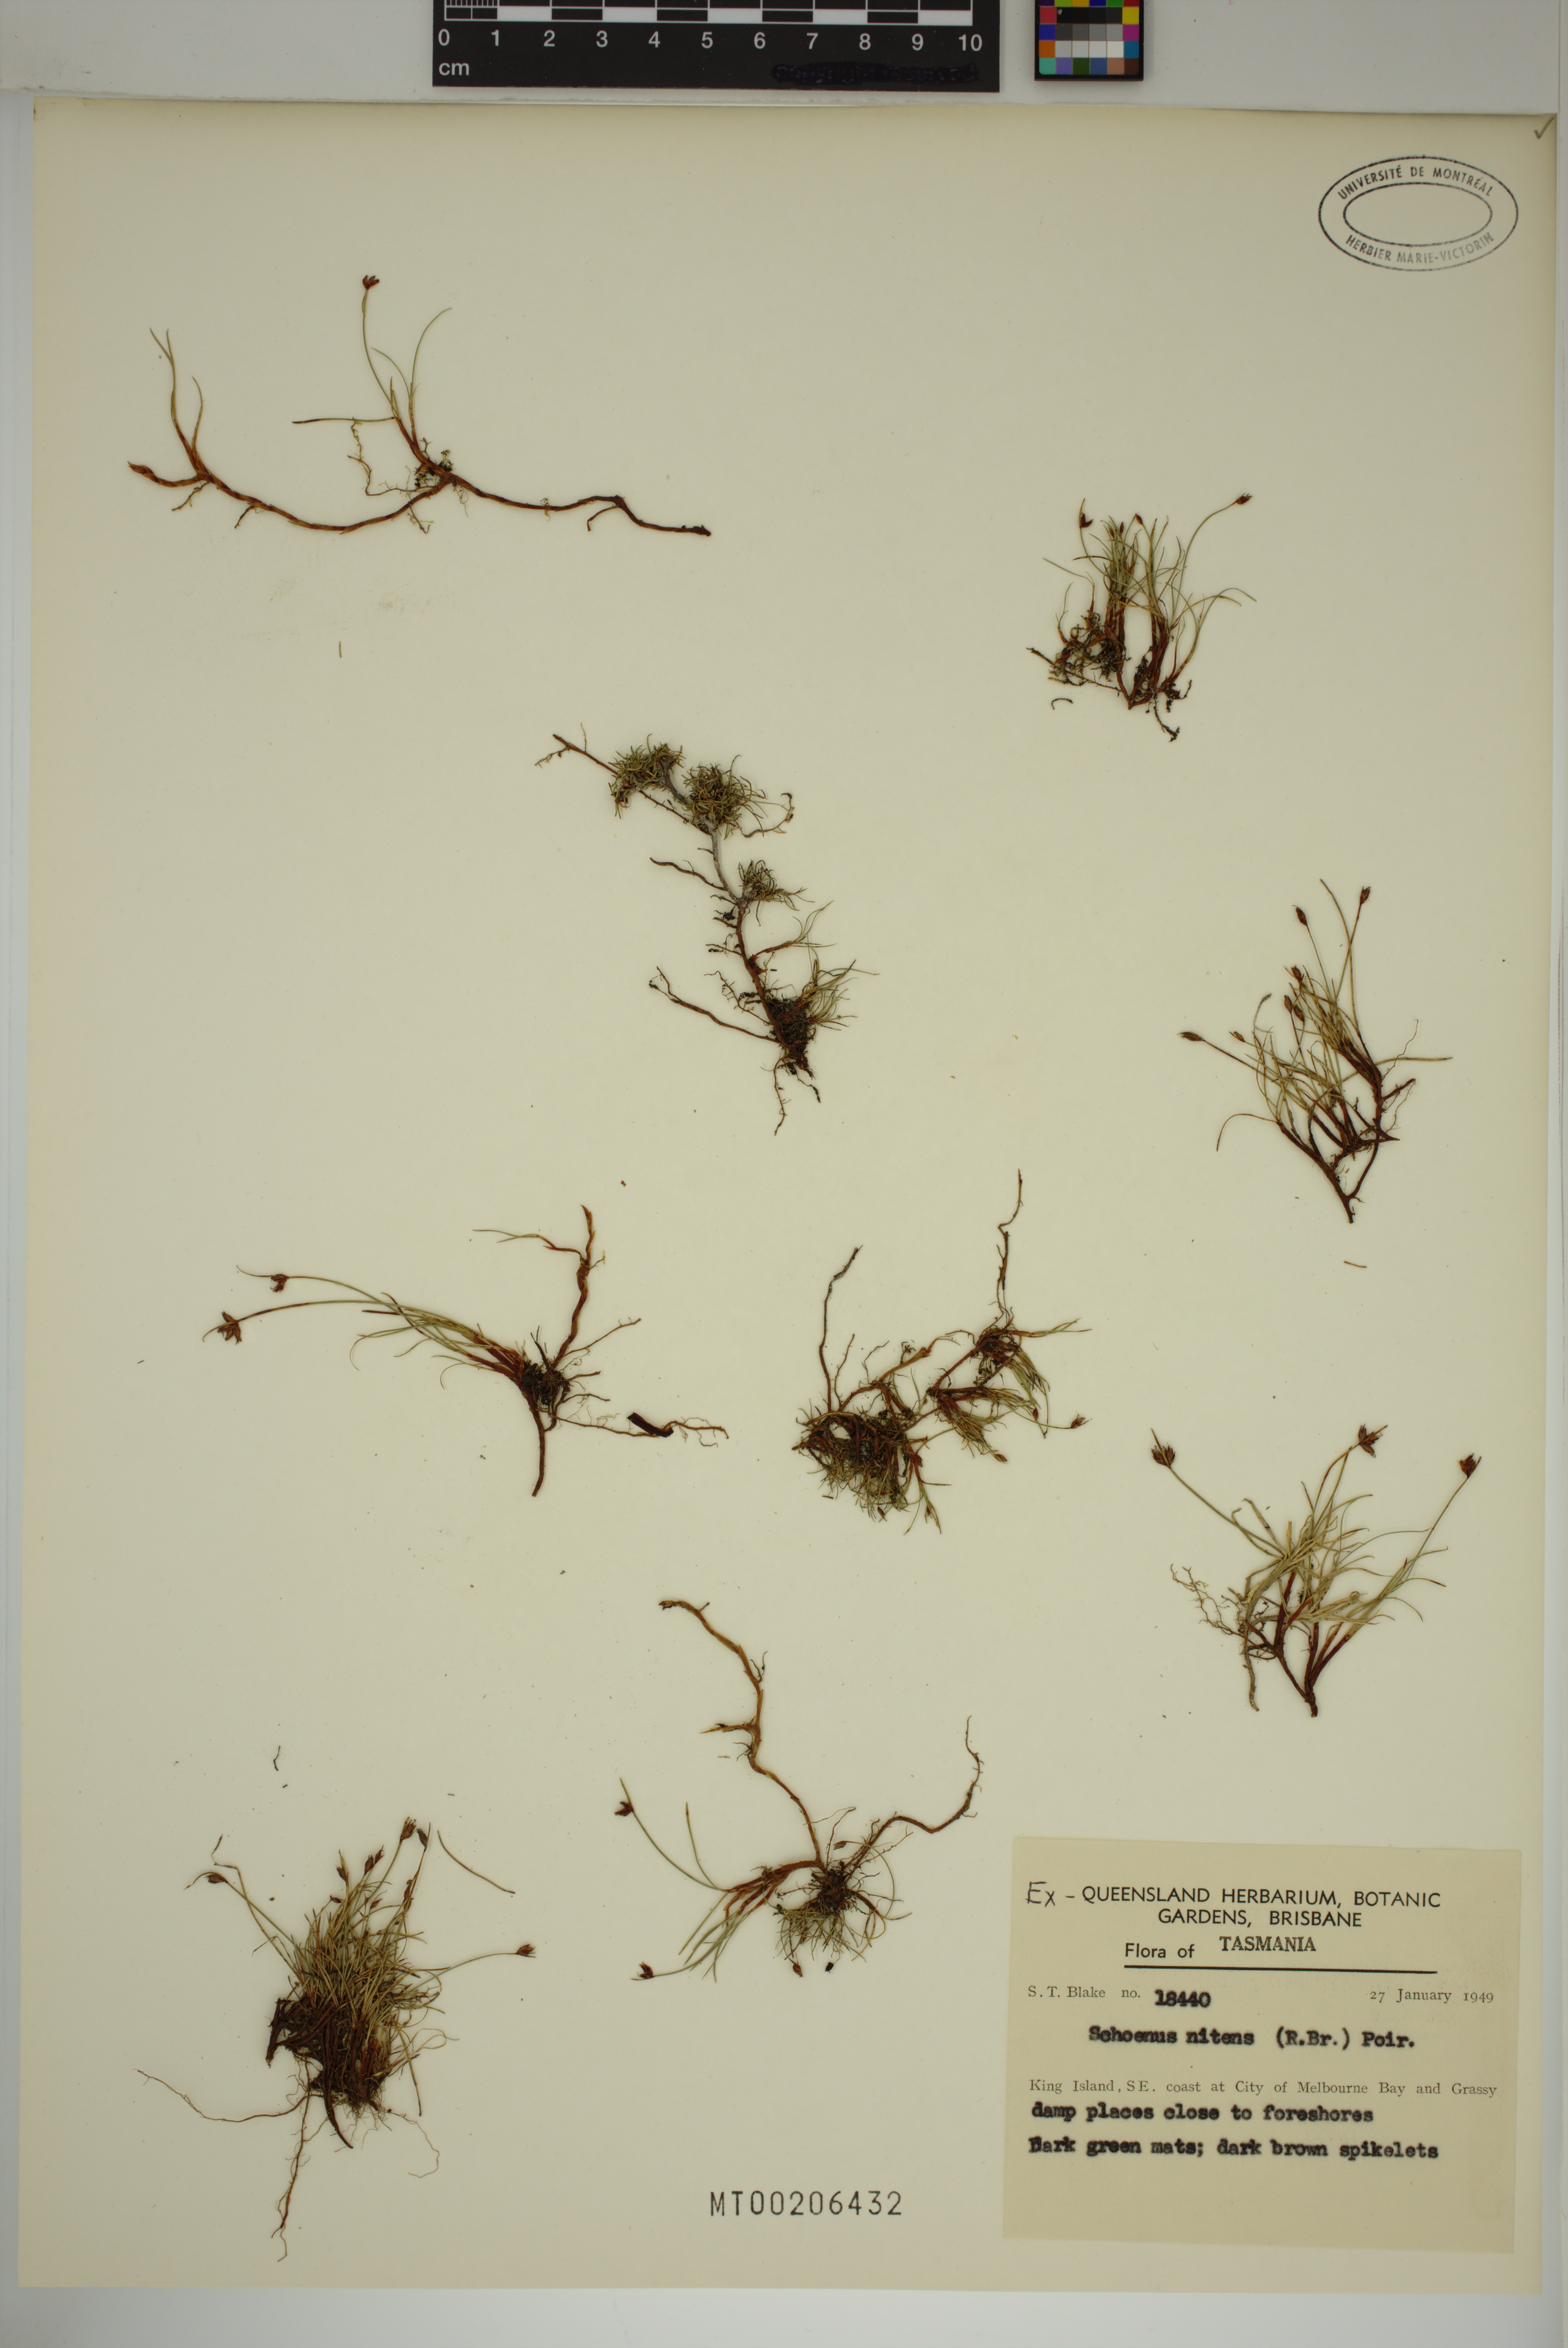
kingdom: Plantae
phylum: Tracheophyta
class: Liliopsida
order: Poales
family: Cyperaceae
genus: Schoenus
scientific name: Schoenus nitens
